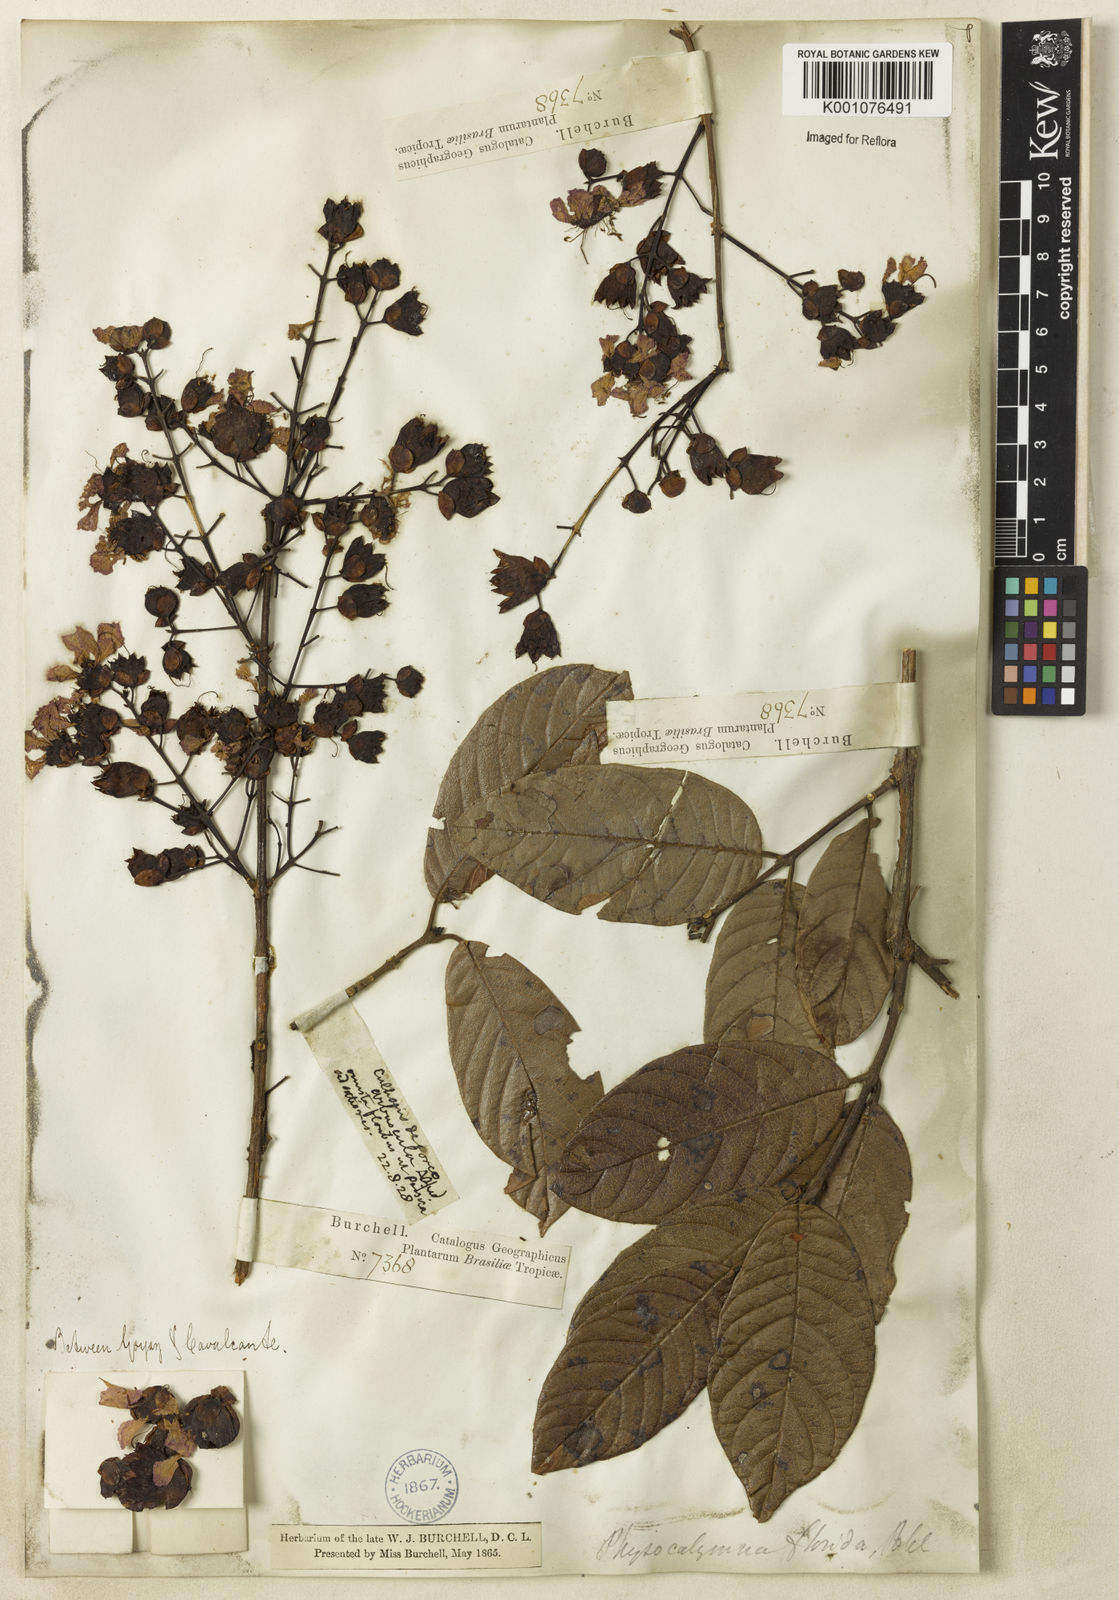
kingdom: Plantae
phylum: Tracheophyta
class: Magnoliopsida
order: Myrtales
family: Lythraceae
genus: Physocalymma
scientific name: Physocalymma scaberrimum
